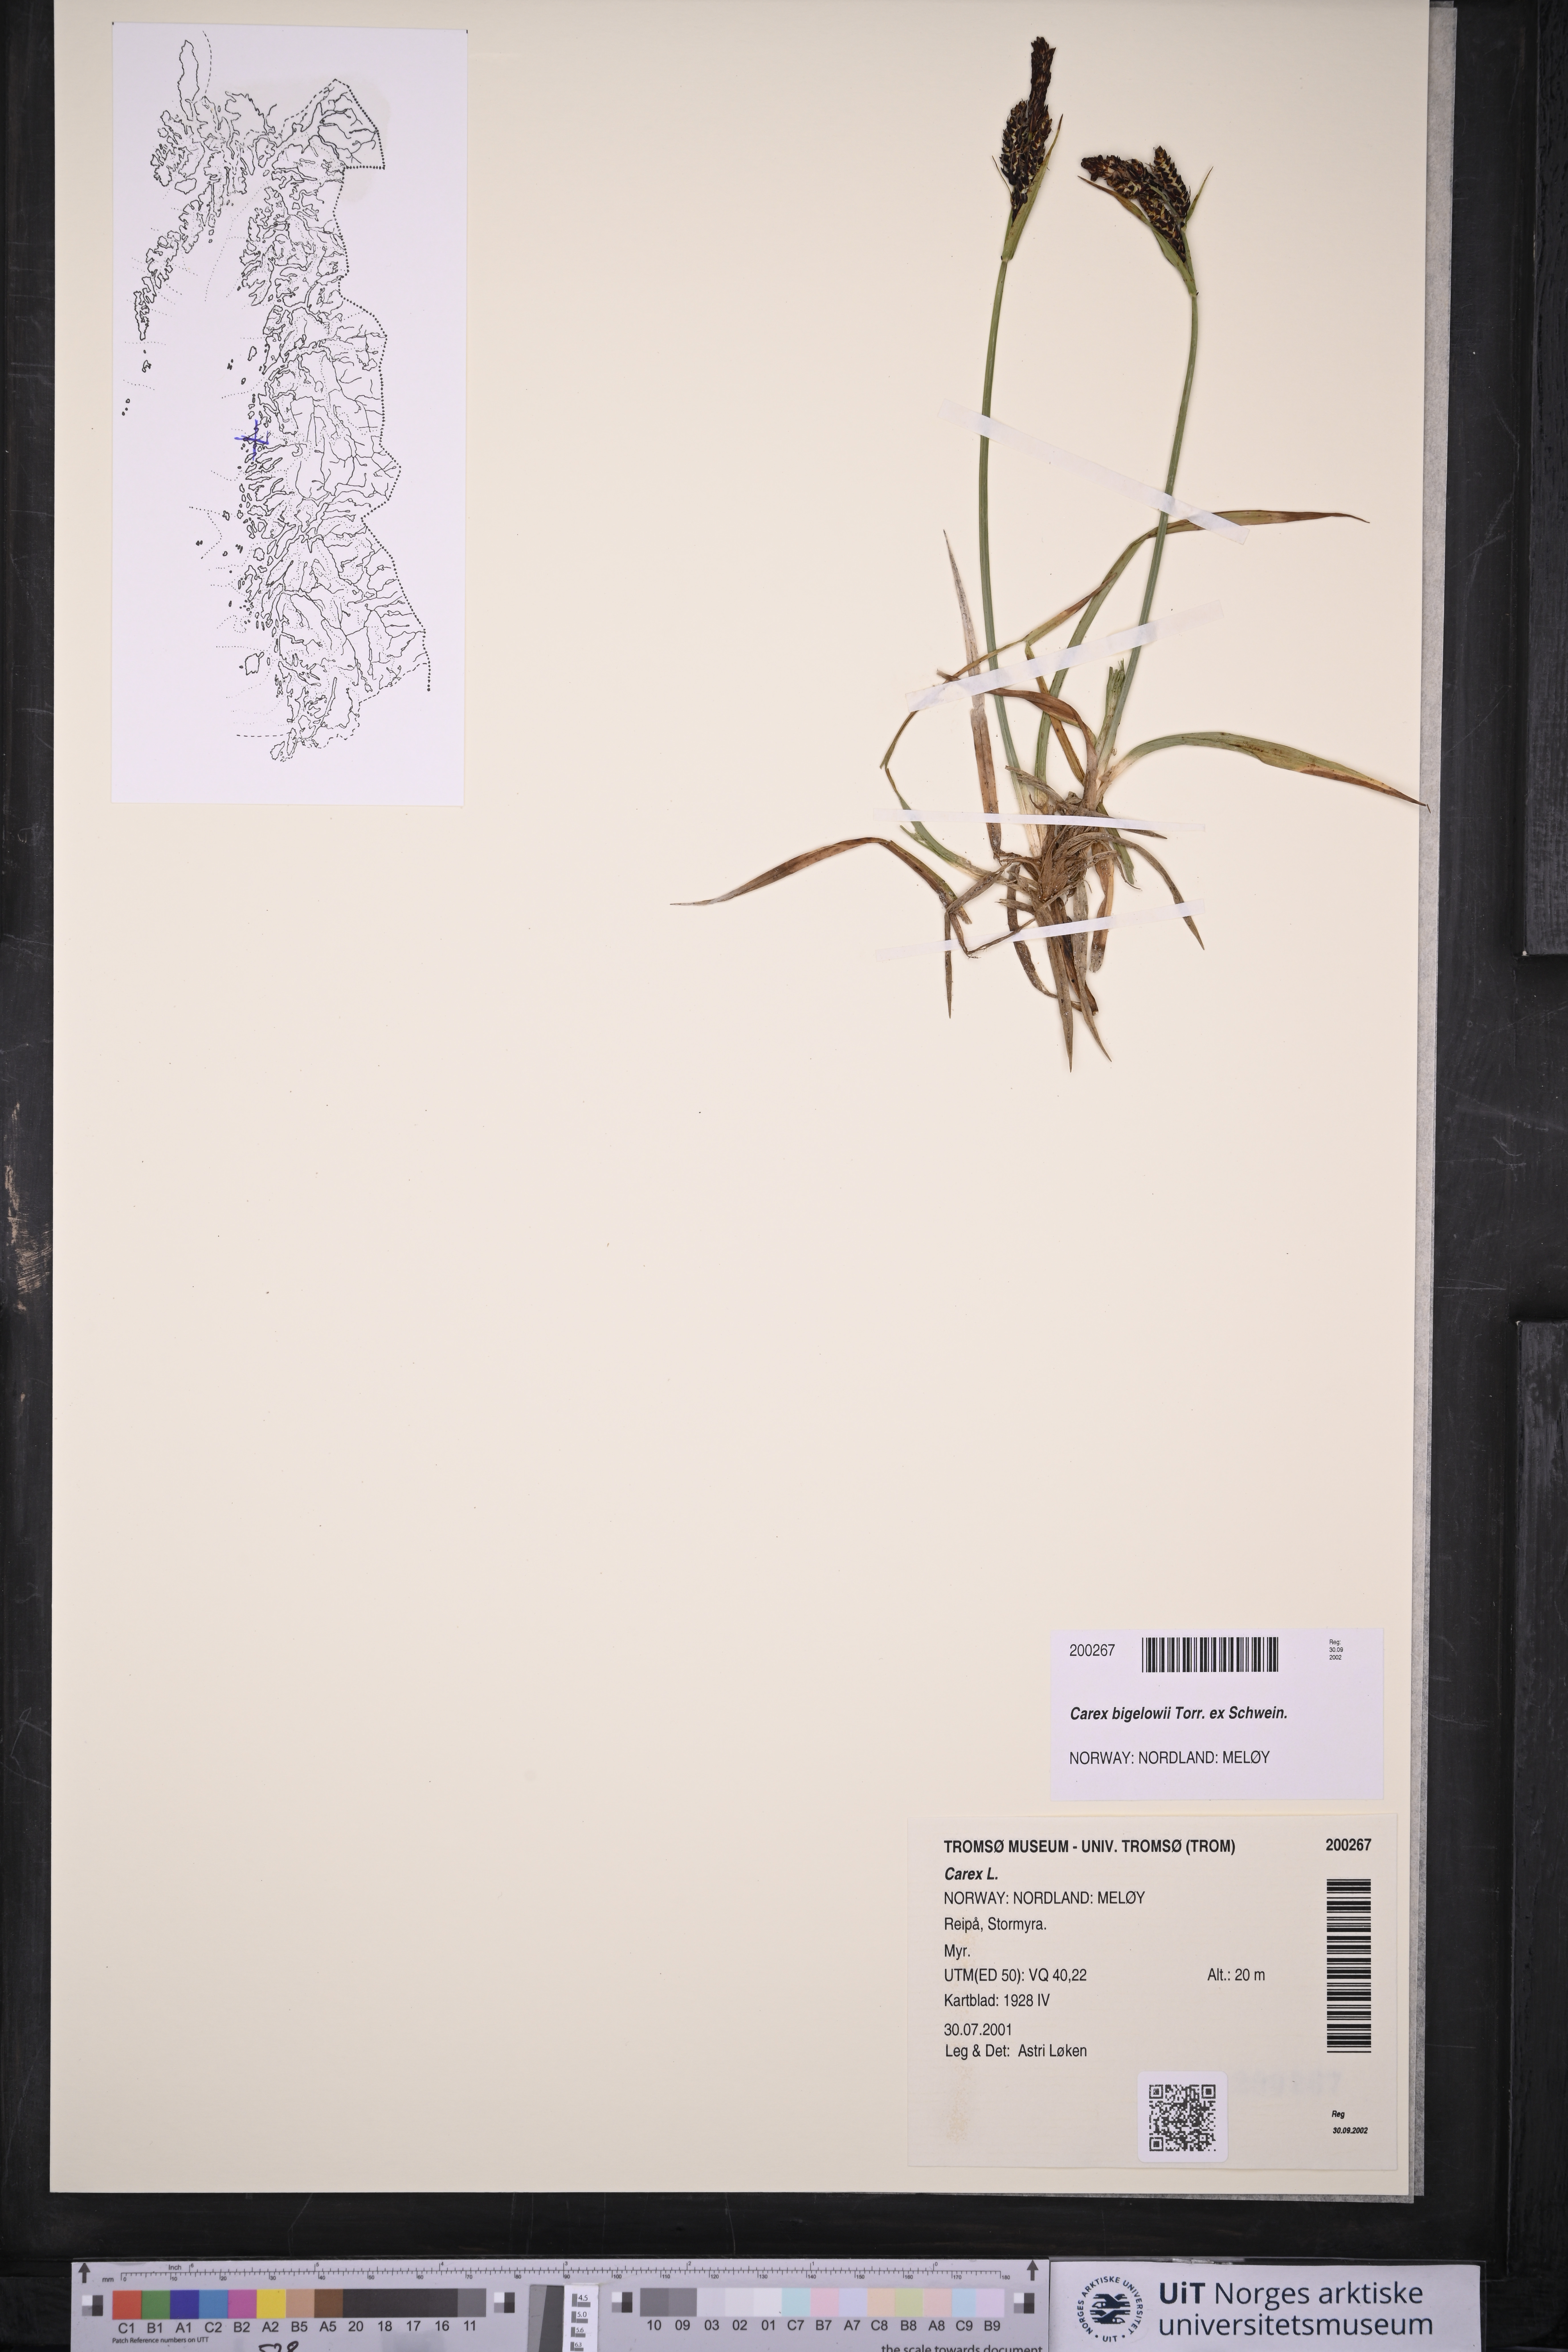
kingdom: Plantae
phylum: Tracheophyta
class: Liliopsida
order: Poales
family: Cyperaceae
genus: Carex
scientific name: Carex bigelowii
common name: Stiff sedge
